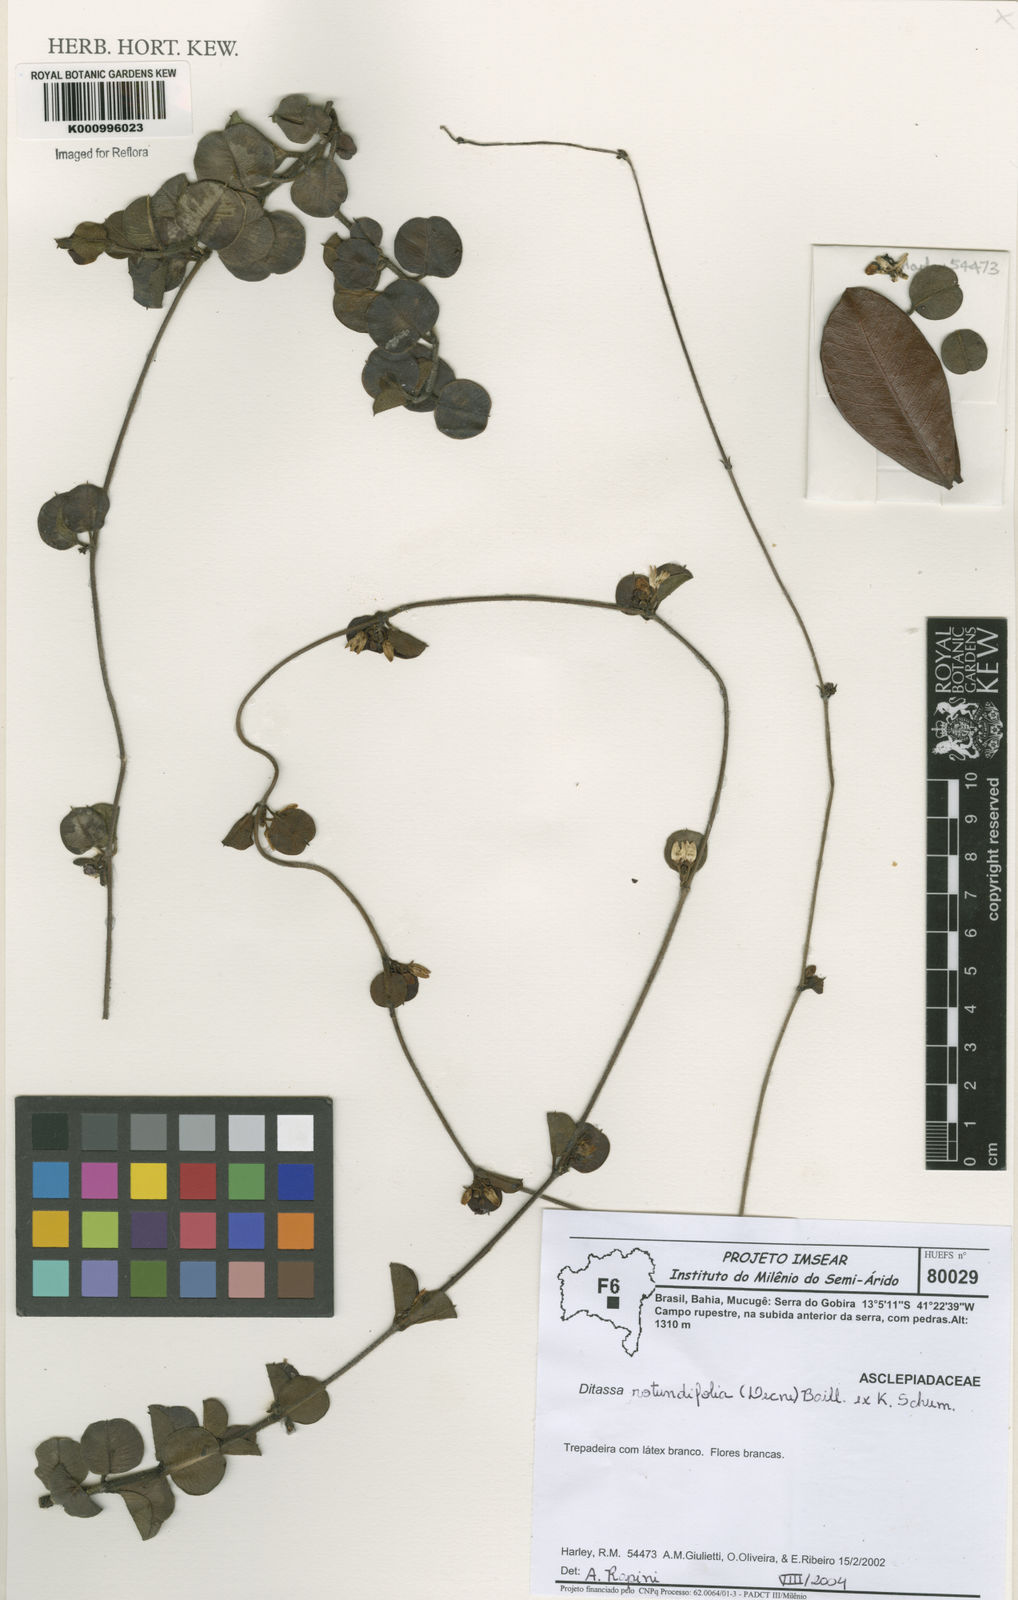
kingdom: Plantae
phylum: Tracheophyta
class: Magnoliopsida
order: Gentianales
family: Apocynaceae
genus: Ditassa
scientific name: Ditassa
